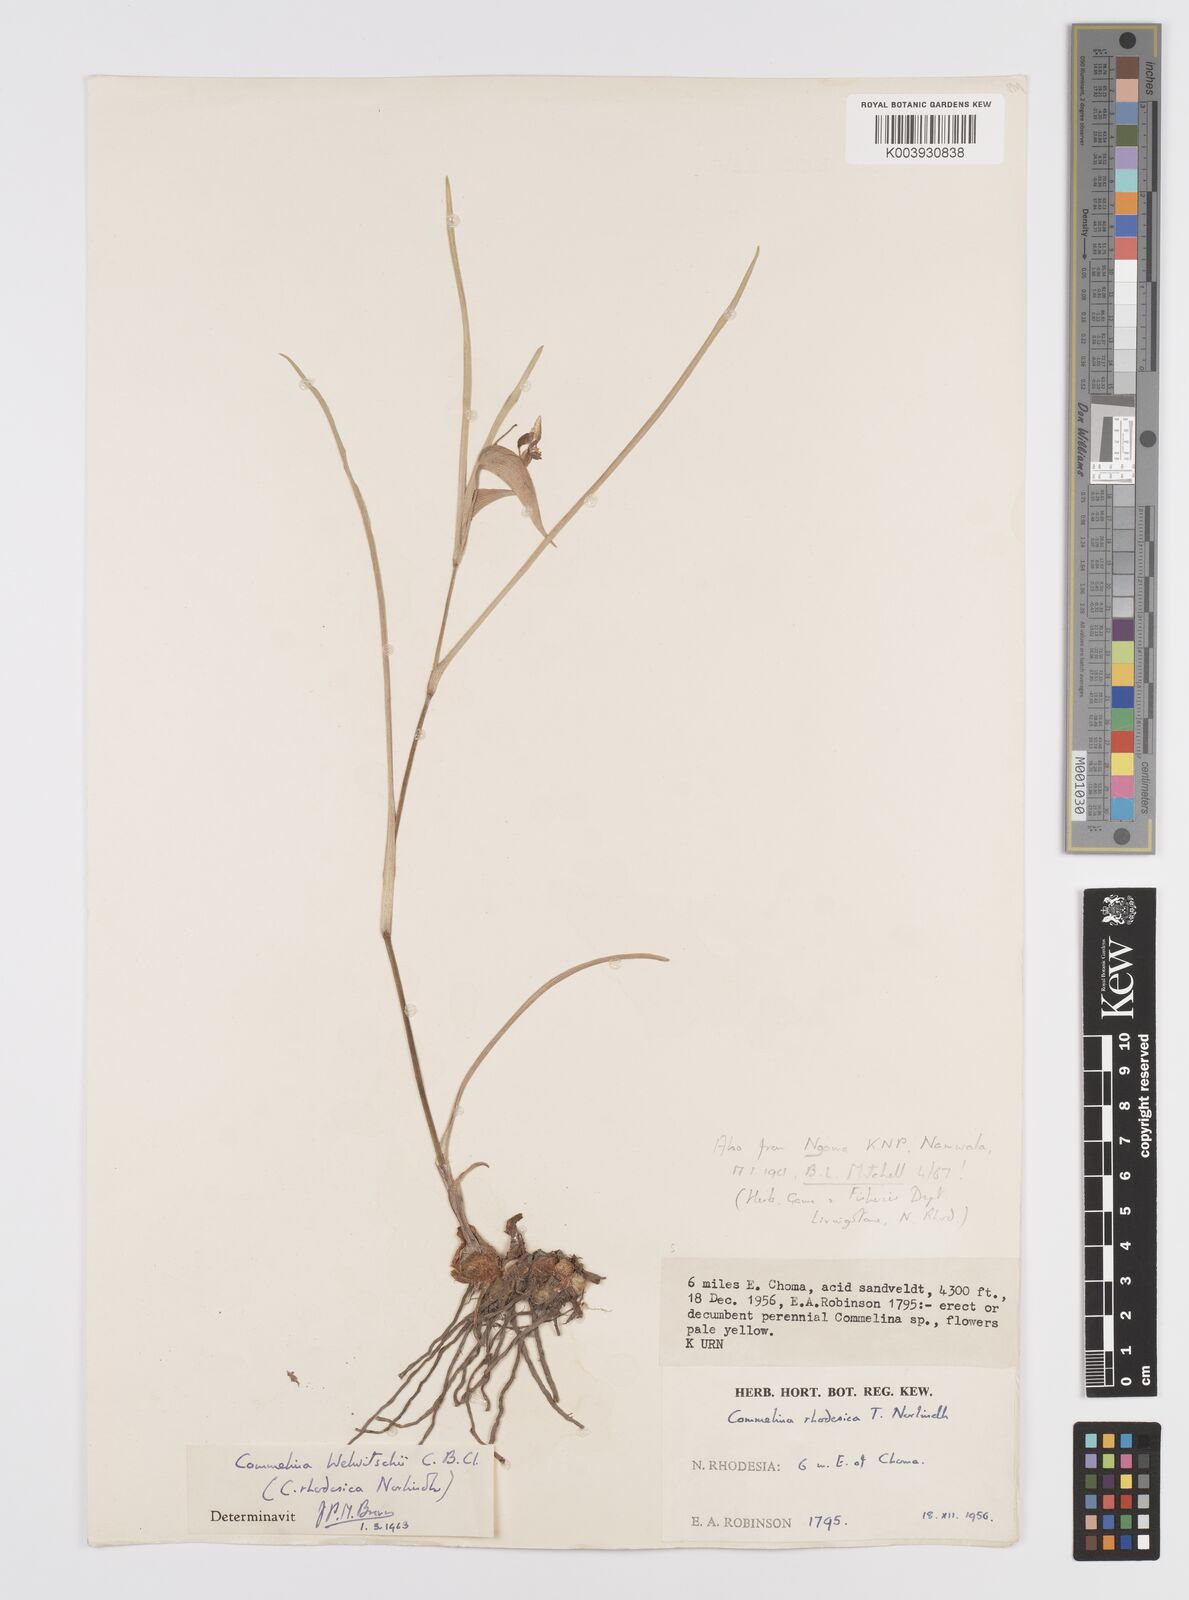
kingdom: Plantae
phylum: Tracheophyta
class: Liliopsida
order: Commelinales
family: Commelinaceae
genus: Commelina
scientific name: Commelina welwitschii
